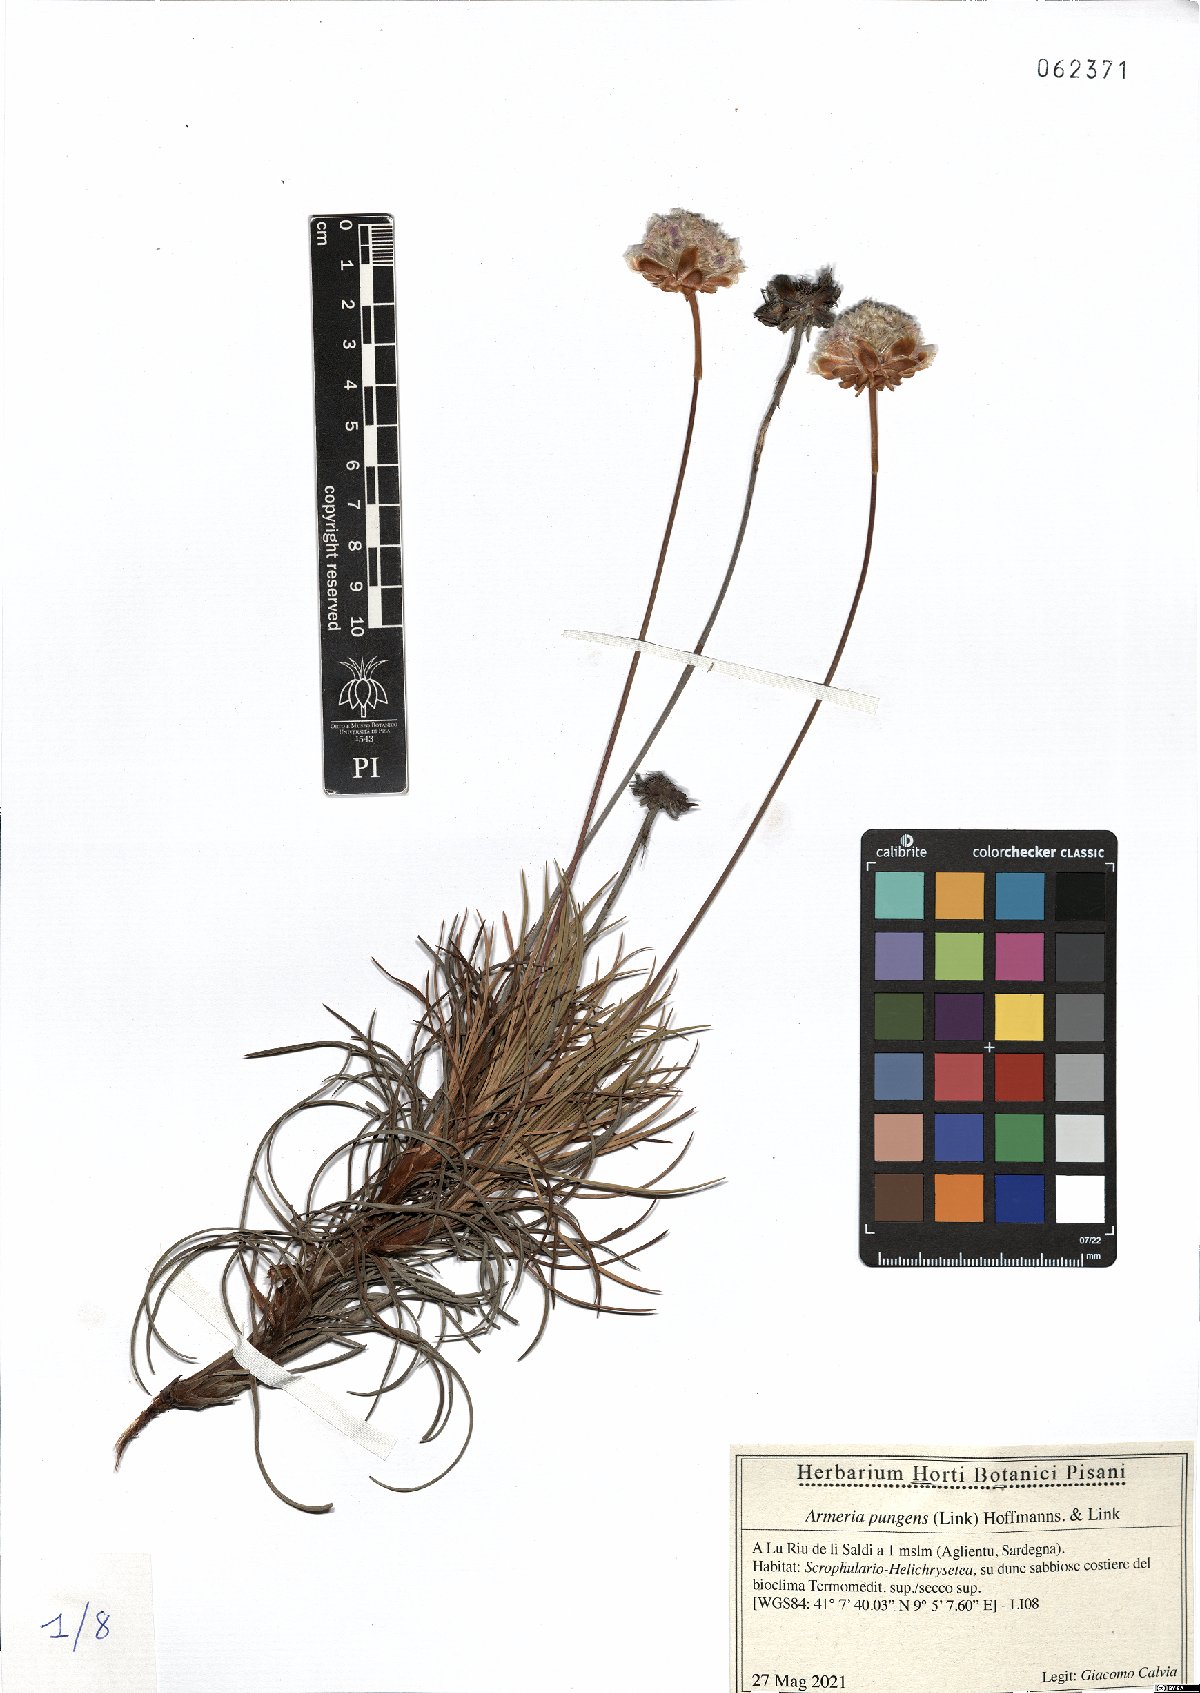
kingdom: Plantae
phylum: Tracheophyta
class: Magnoliopsida
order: Caryophyllales
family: Plumbaginaceae
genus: Armeria
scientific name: Armeria pungens
